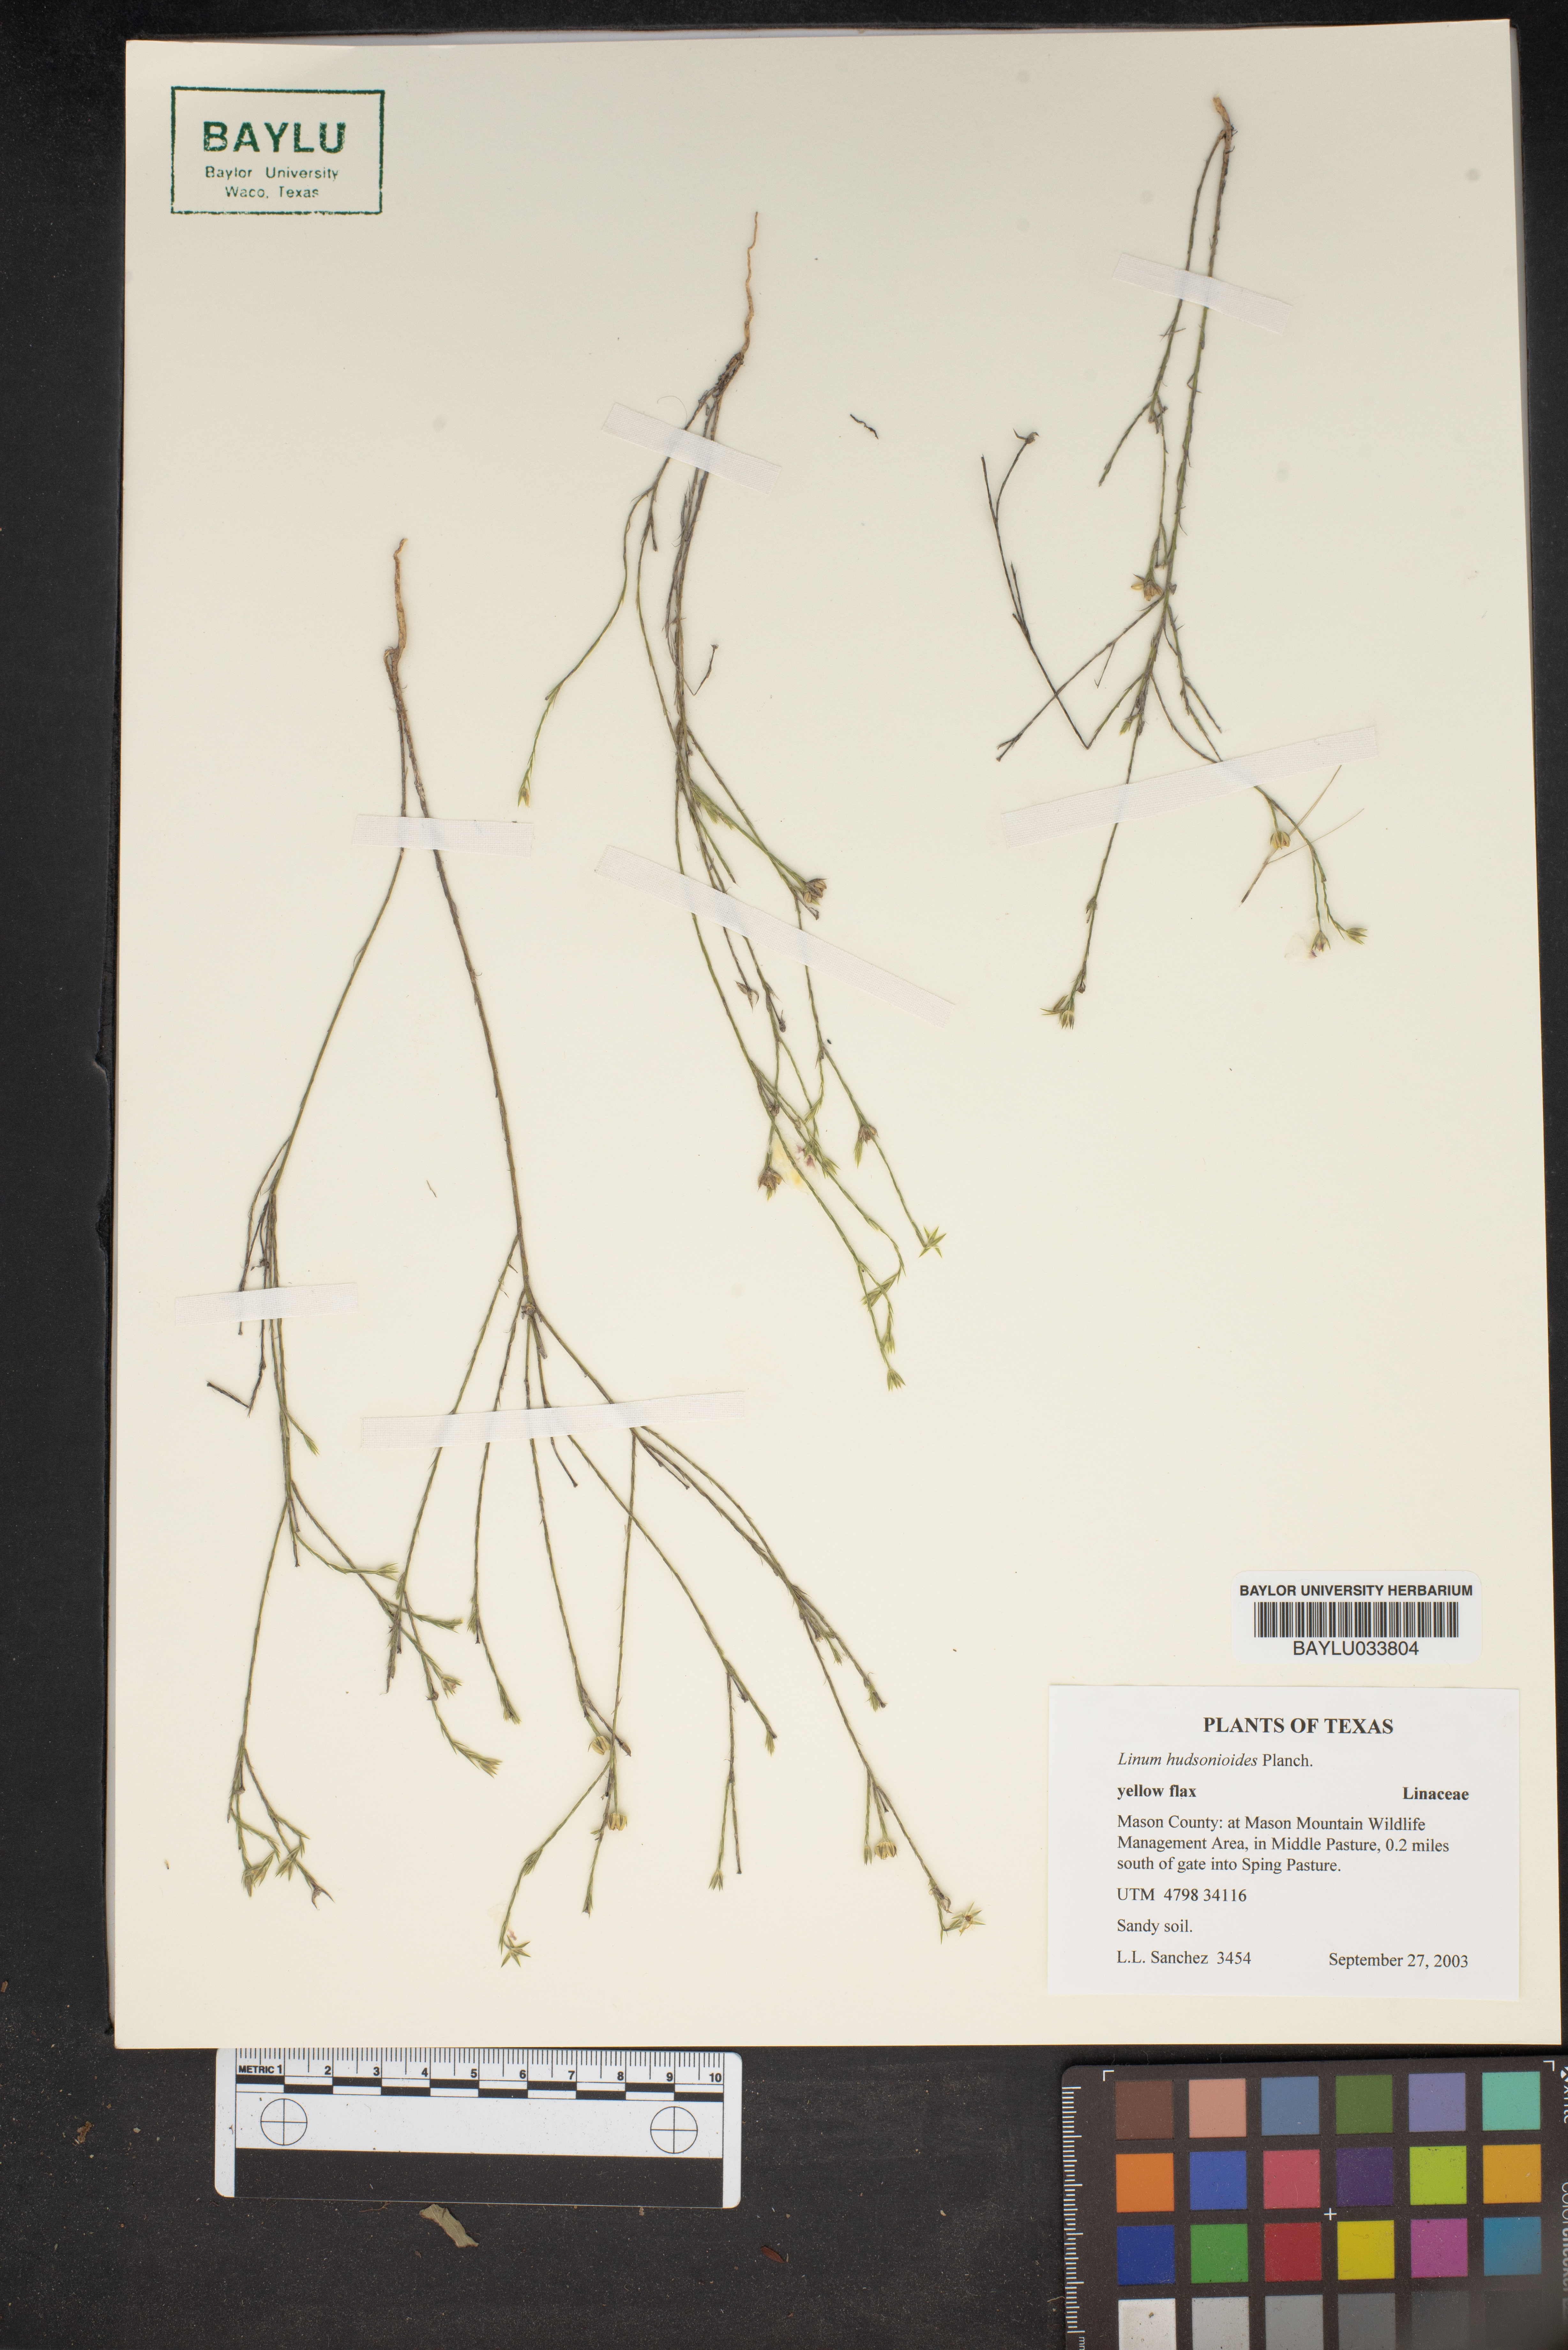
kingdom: Plantae
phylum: Tracheophyta
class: Magnoliopsida
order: Malpighiales
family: Linaceae
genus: Linum
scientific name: Linum hudsonioides
